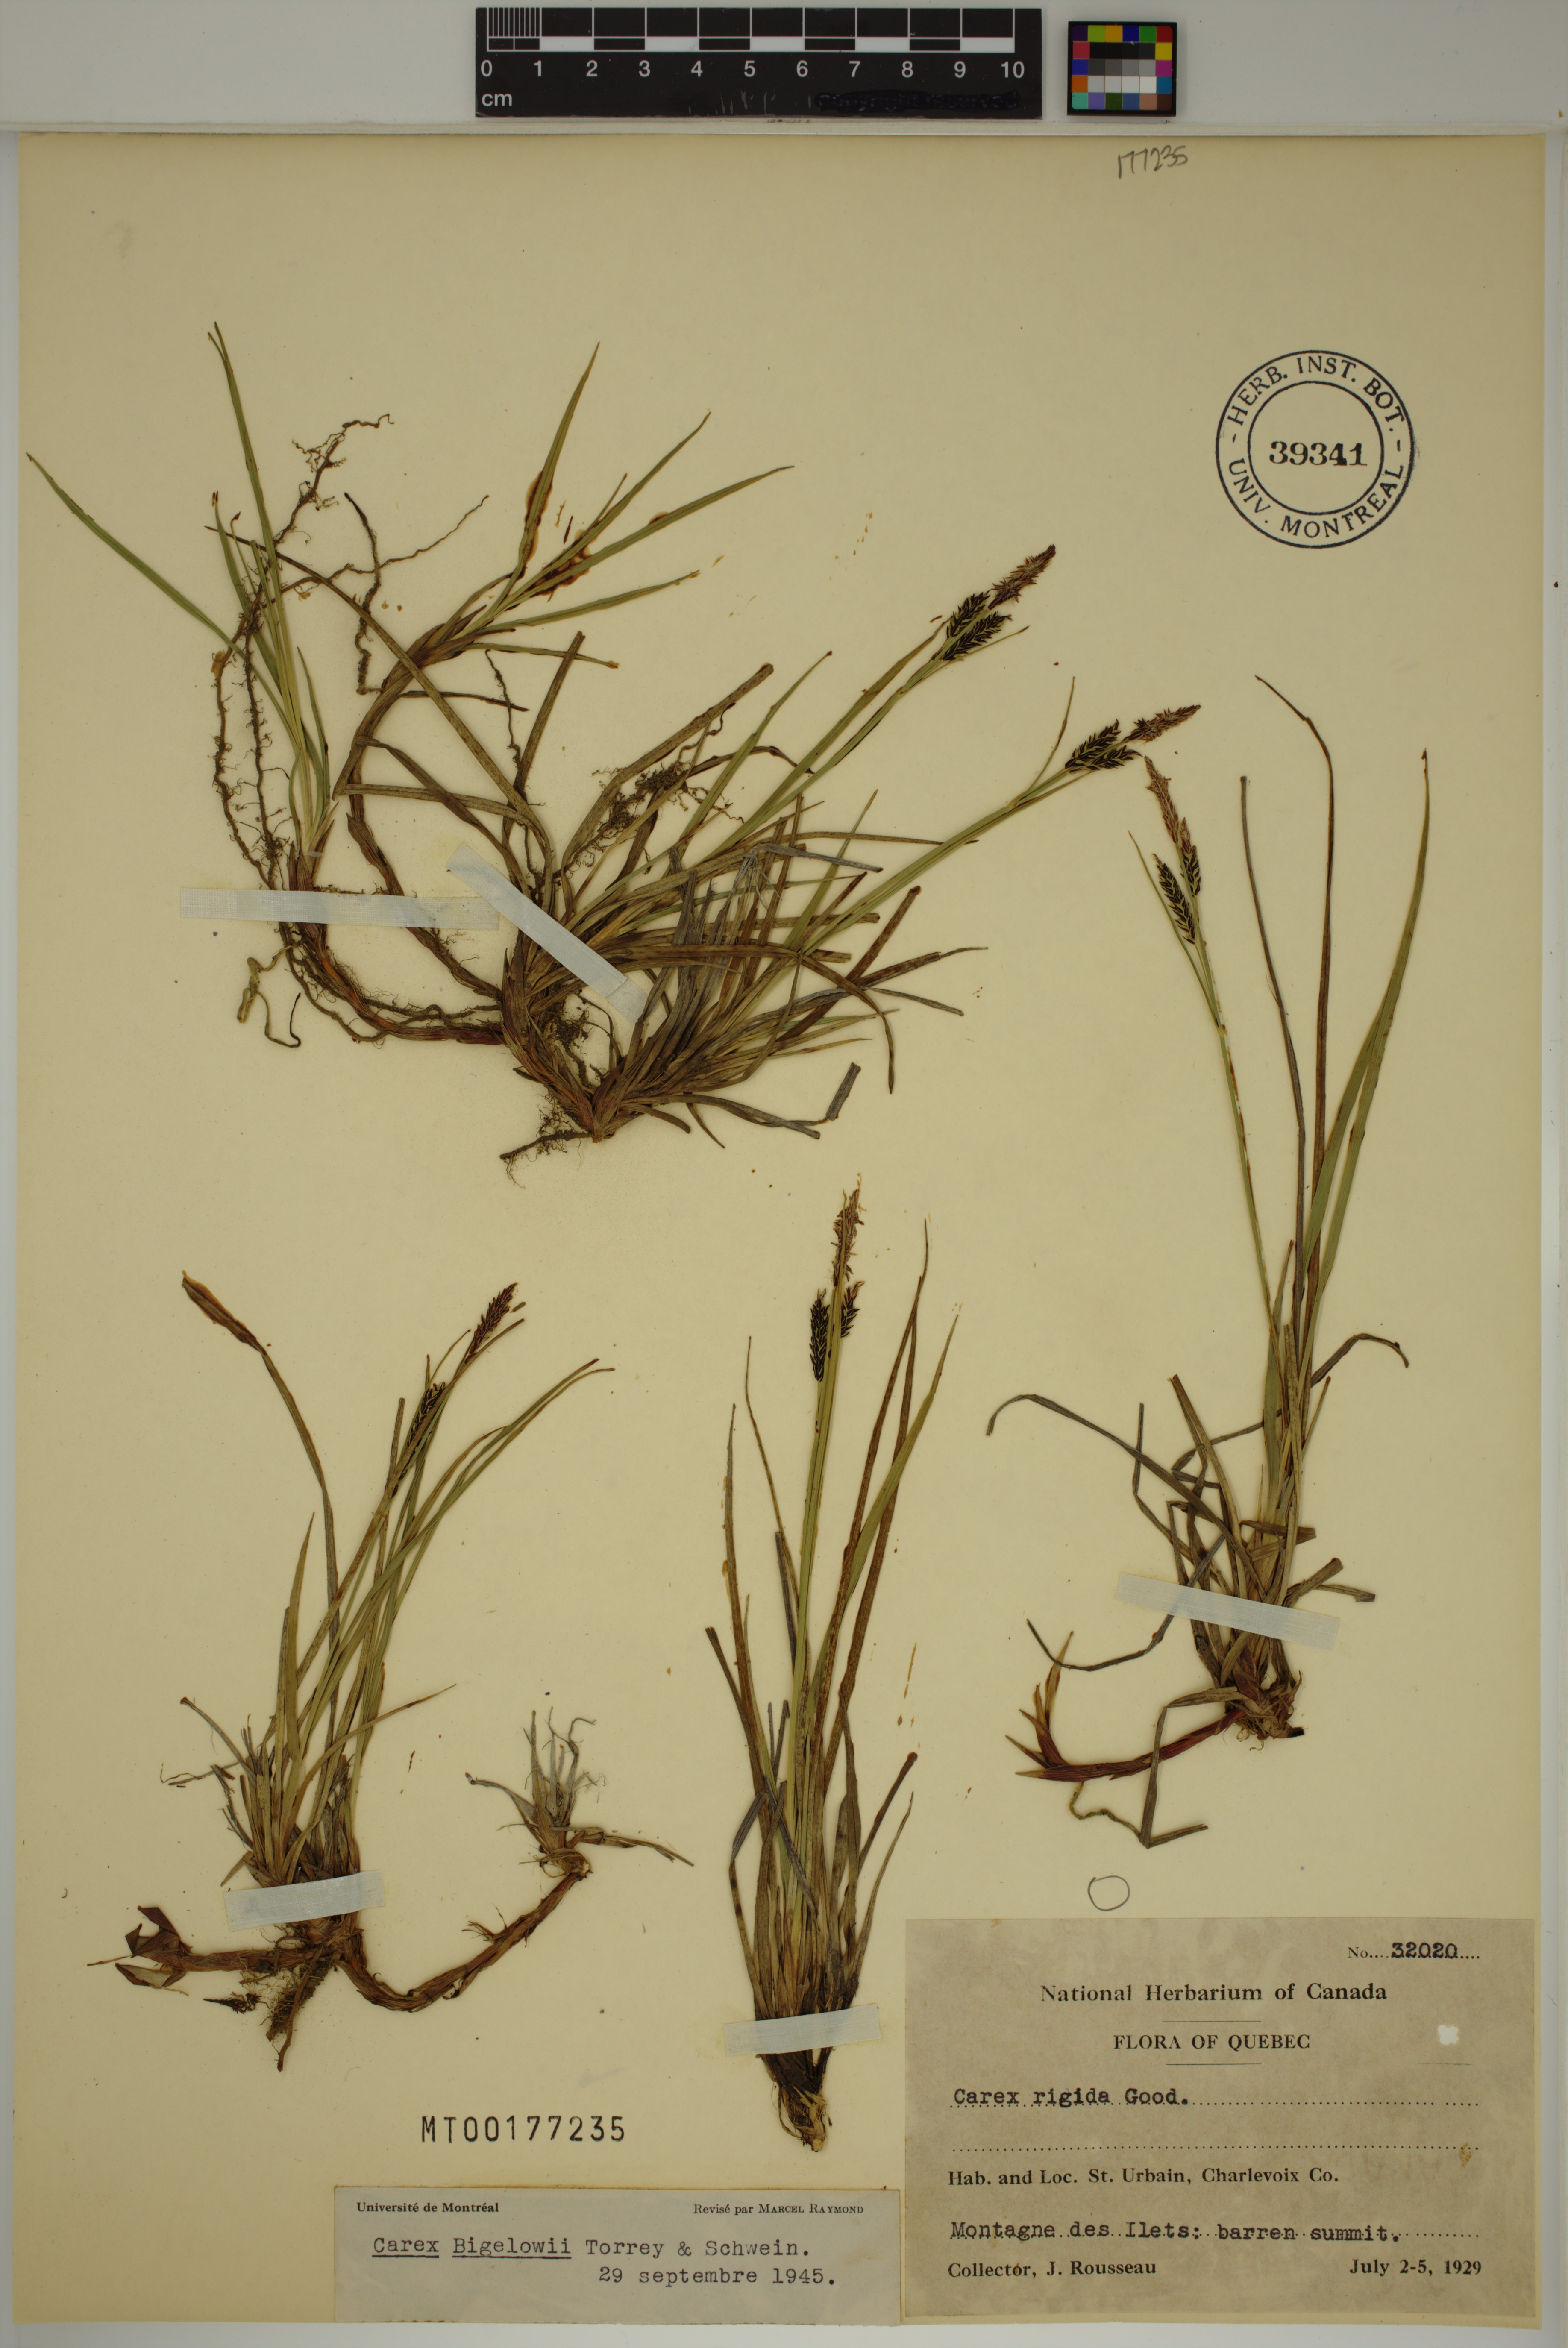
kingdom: Plantae
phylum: Tracheophyta
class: Liliopsida
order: Poales
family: Cyperaceae
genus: Carex
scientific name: Carex bigelowii
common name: Stiff sedge
